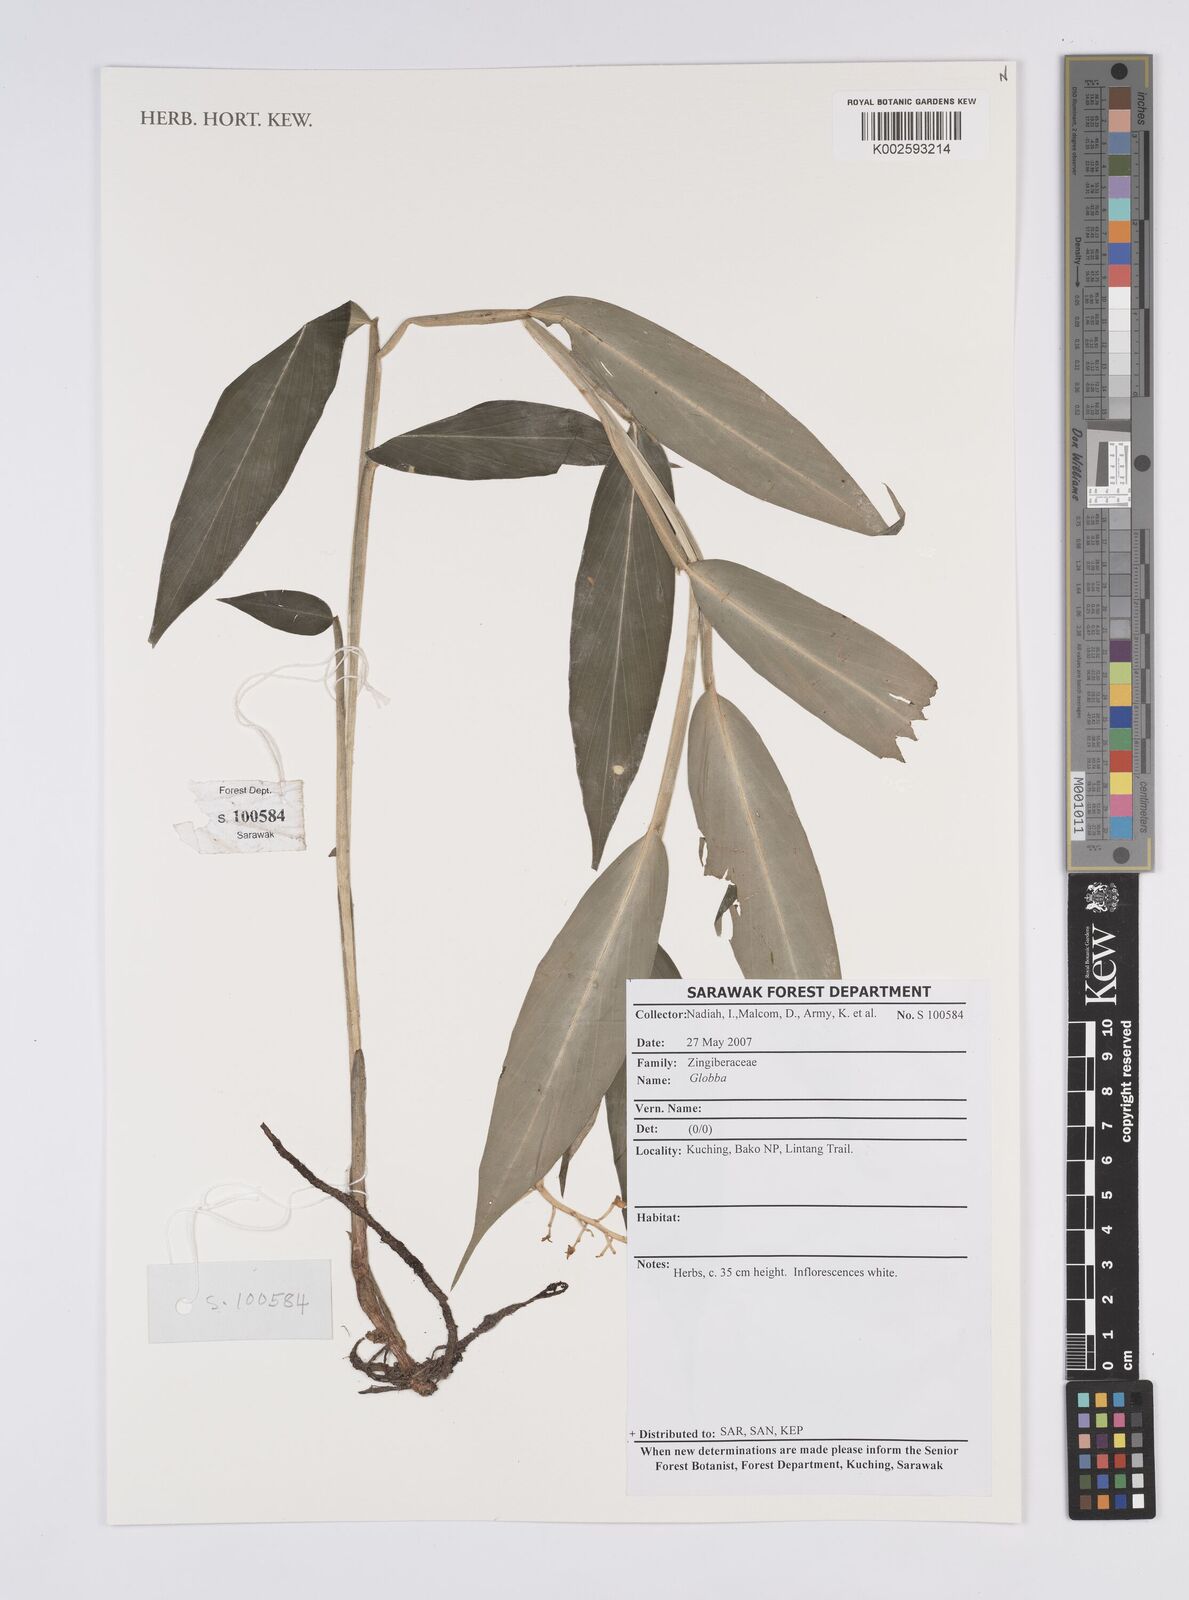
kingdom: Plantae
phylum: Tracheophyta
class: Liliopsida
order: Zingiberales
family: Zingiberaceae
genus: Globba
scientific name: Globba
